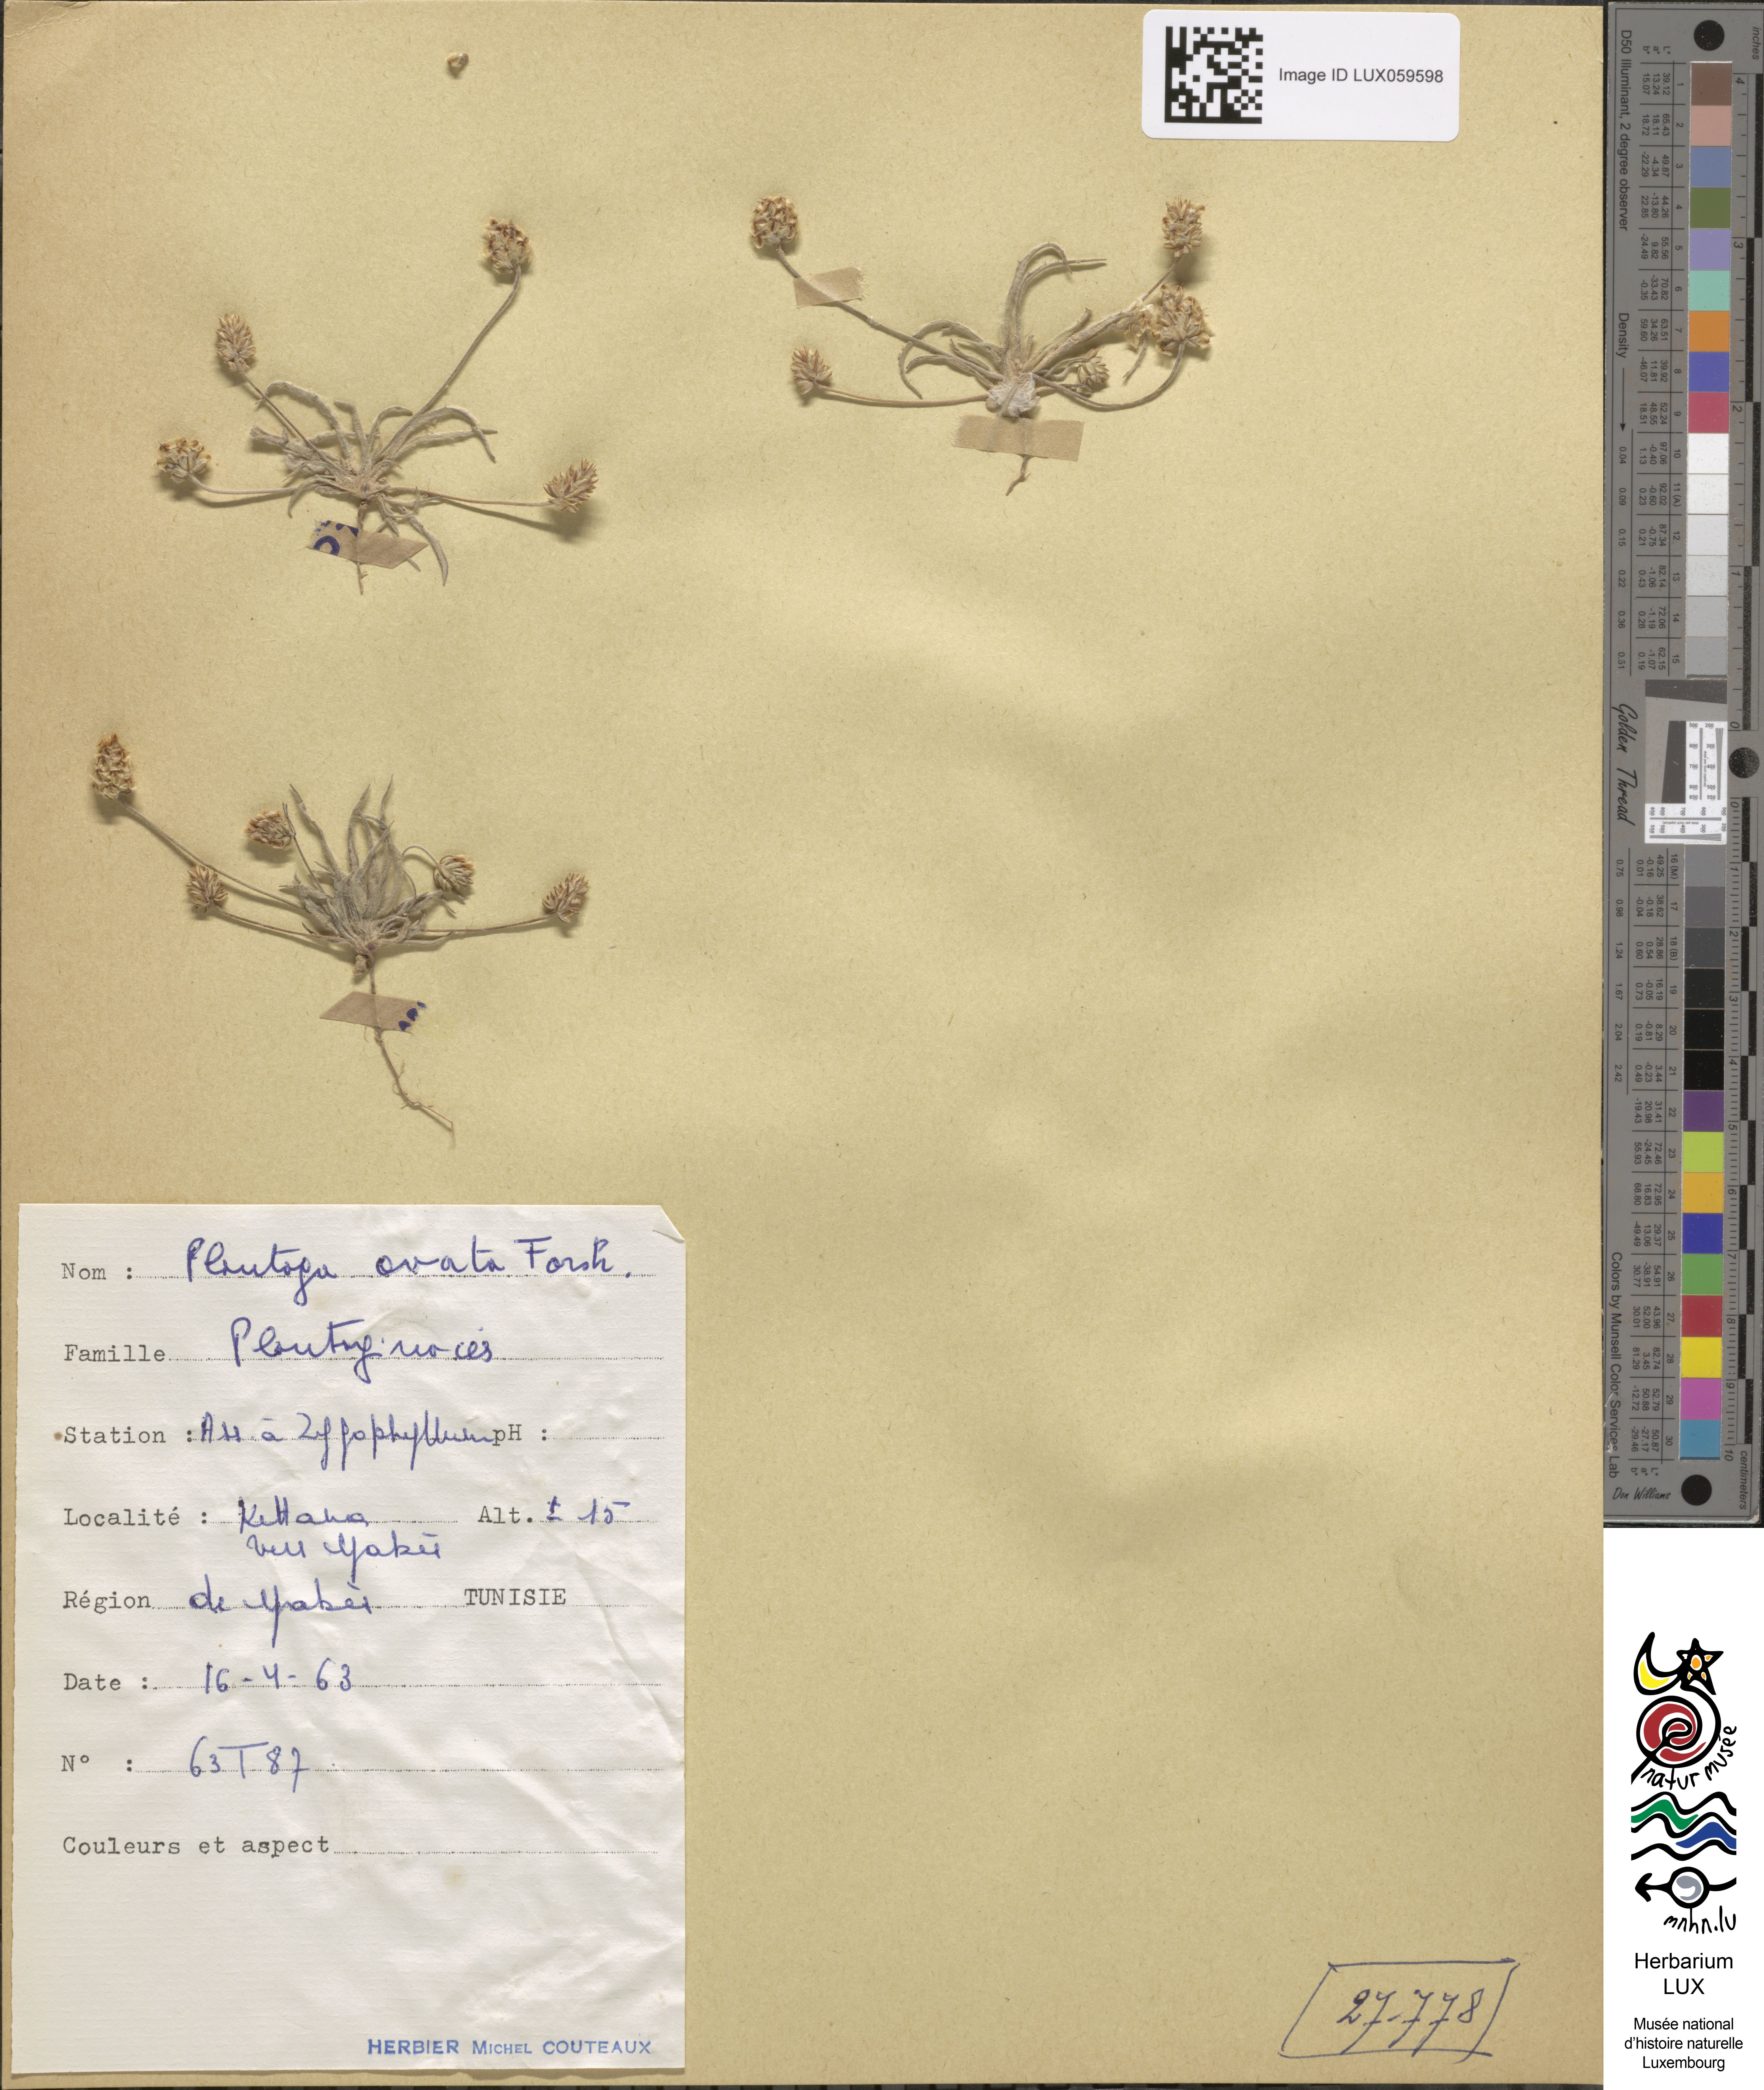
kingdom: Plantae
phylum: Tracheophyta
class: Magnoliopsida
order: Lamiales
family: Plantaginaceae
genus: Plantago
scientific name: Plantago ovata
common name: Blond plantain
